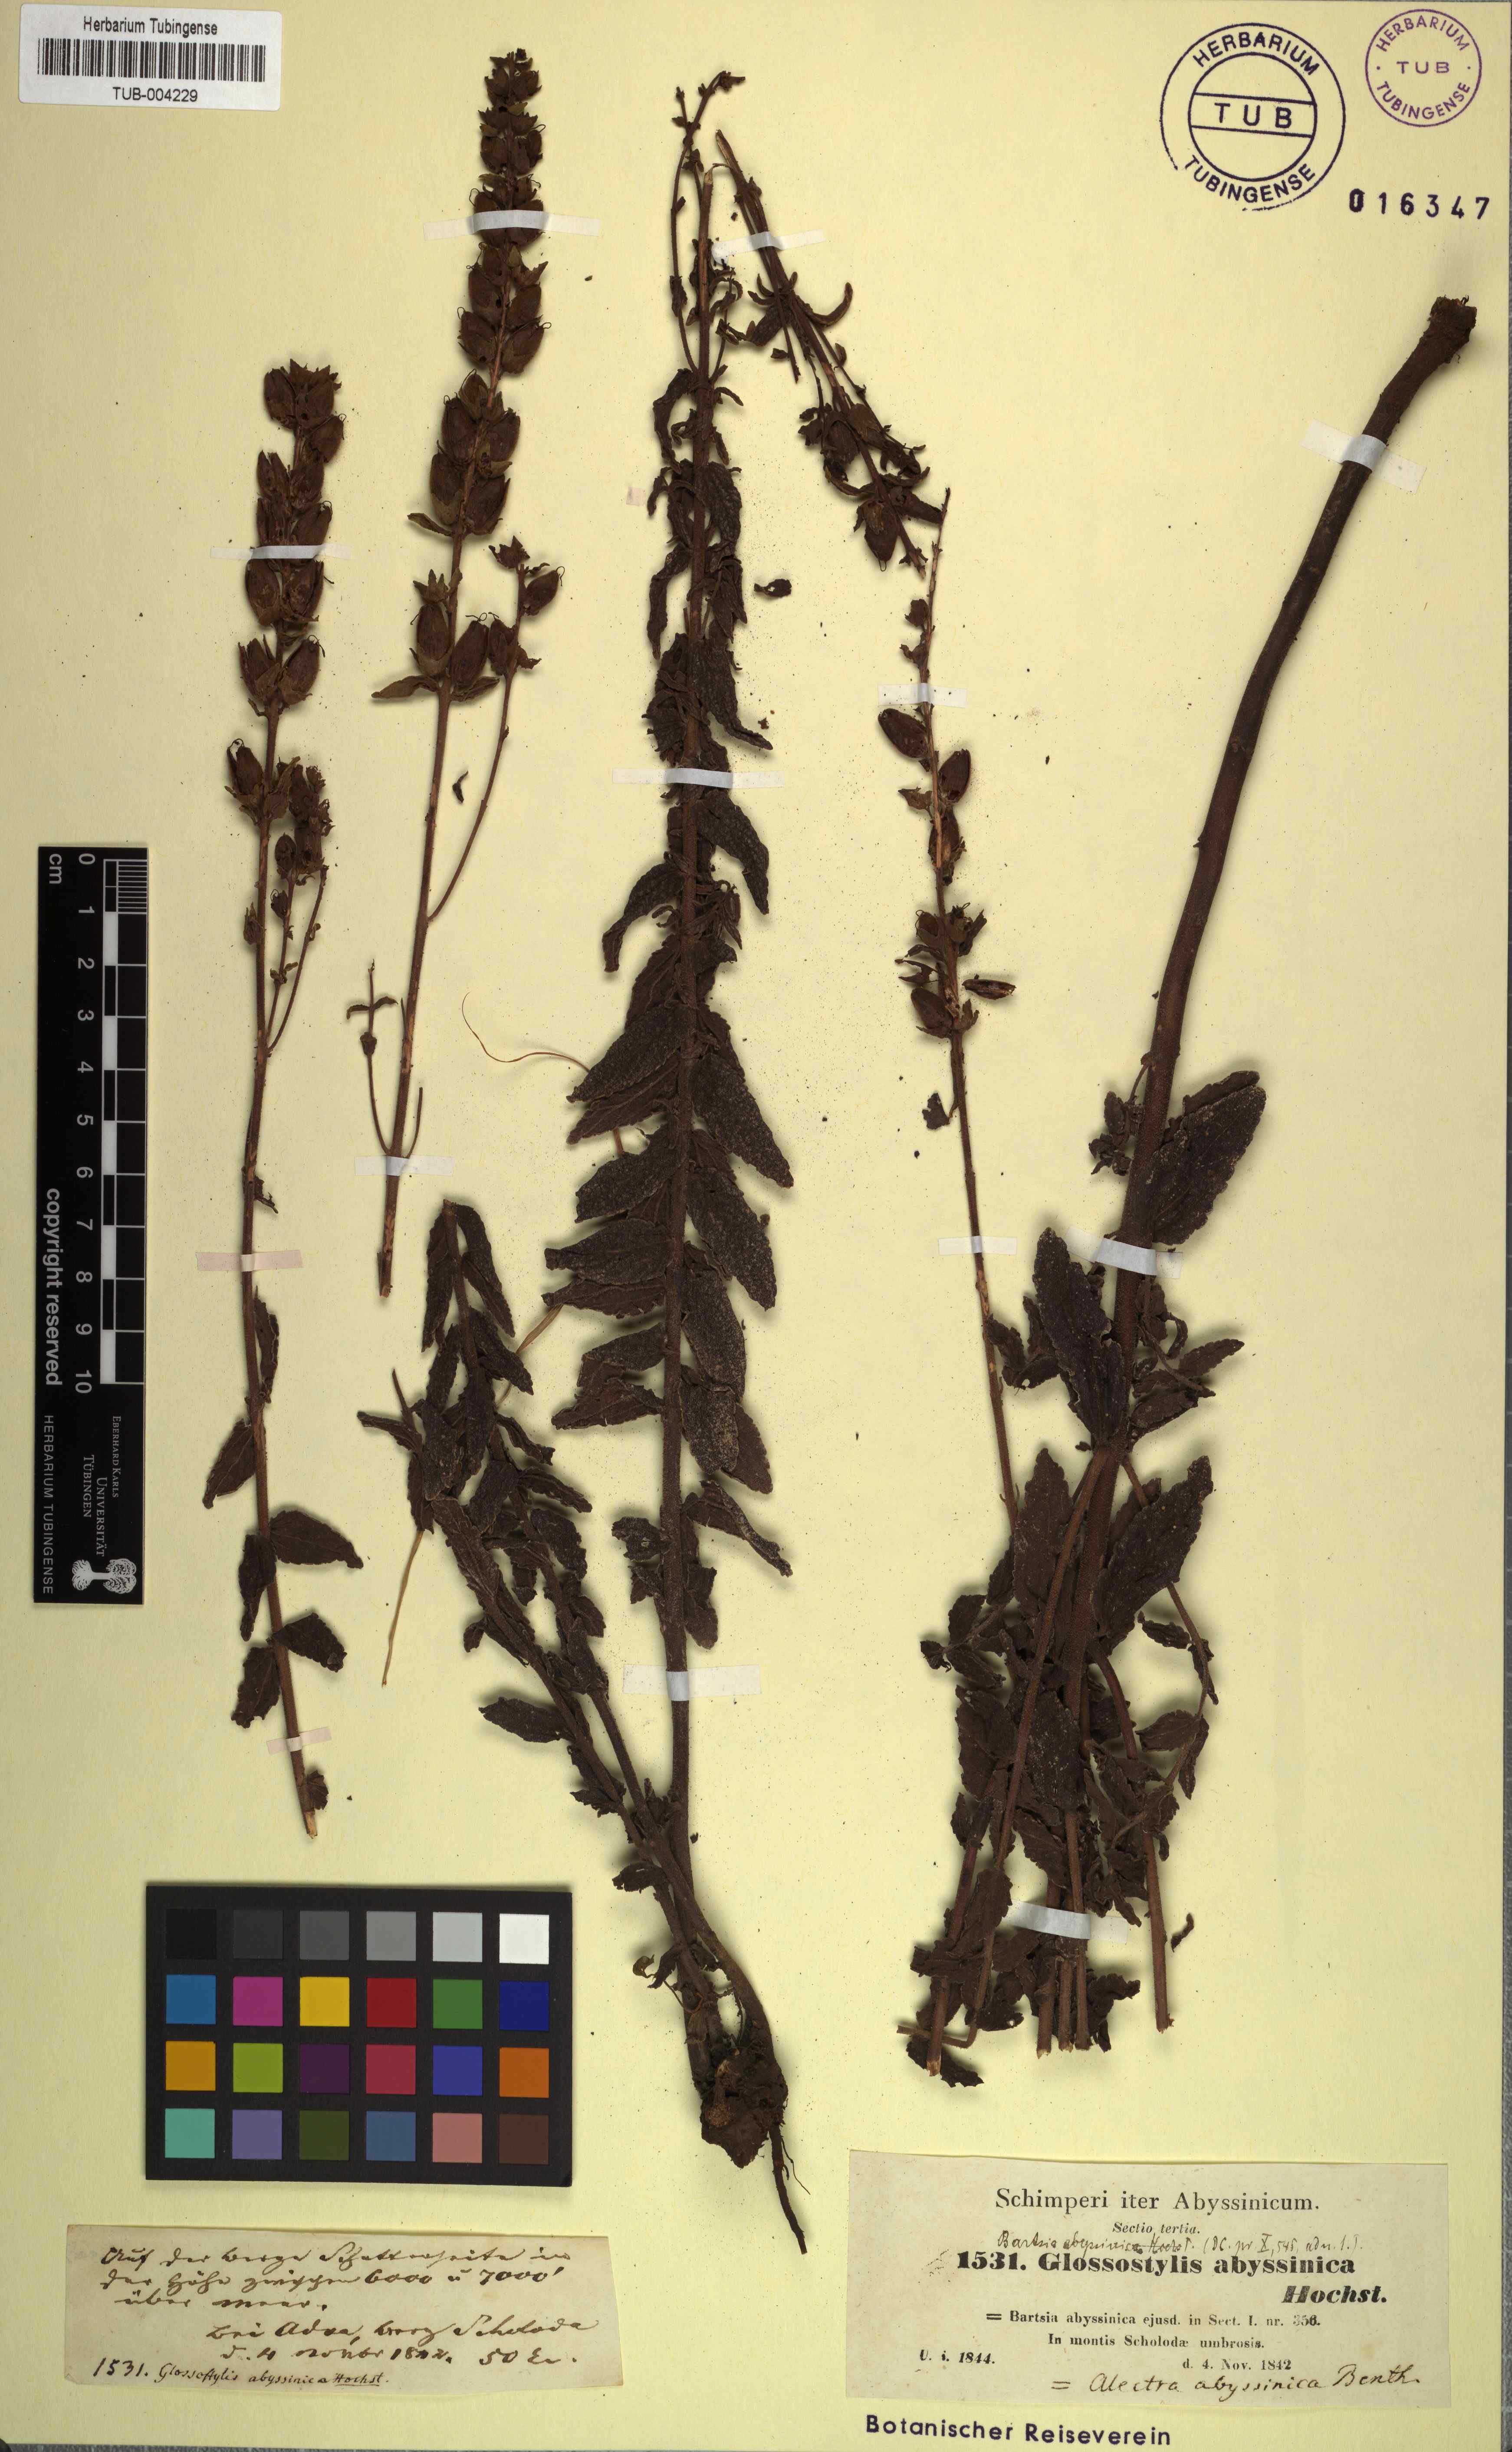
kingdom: Plantae
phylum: Tracheophyta
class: Magnoliopsida
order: Lamiales
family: Orobanchaceae
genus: Hedbergia
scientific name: Hedbergia abyssinica
